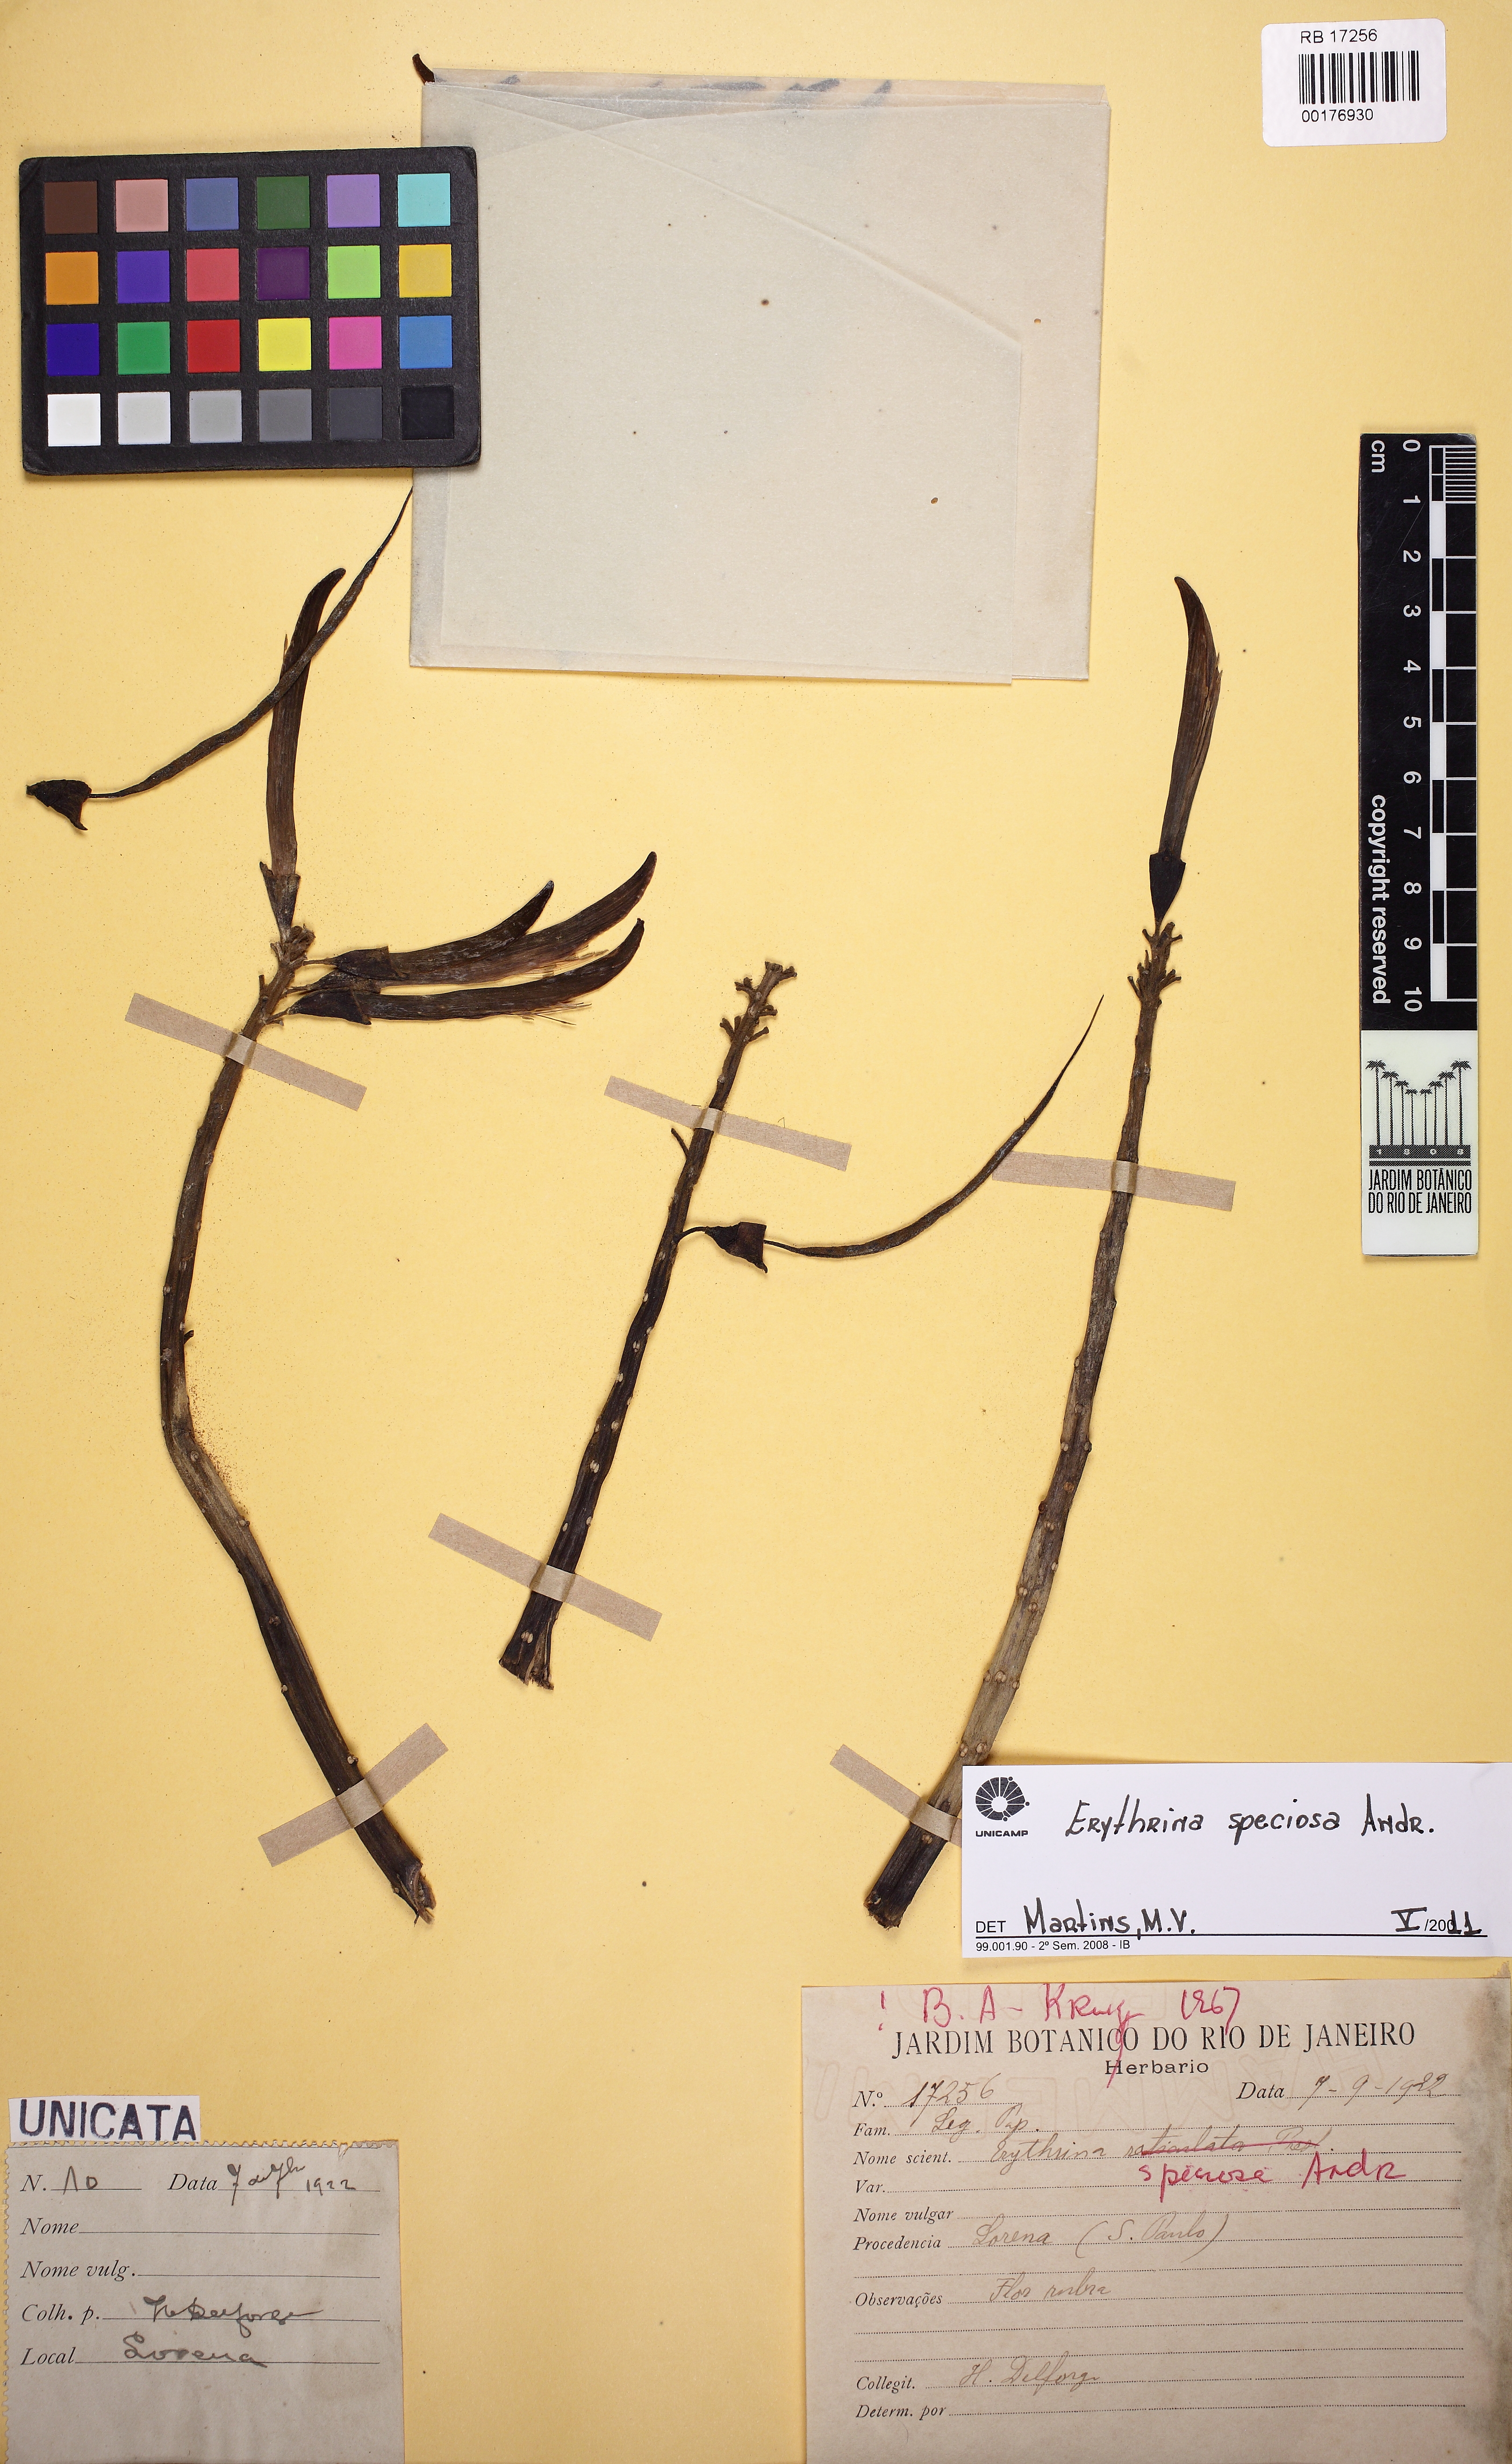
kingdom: Plantae
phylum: Tracheophyta
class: Magnoliopsida
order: Fabales
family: Fabaceae
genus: Erythrina
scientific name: Erythrina speciosa
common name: Coral tree
